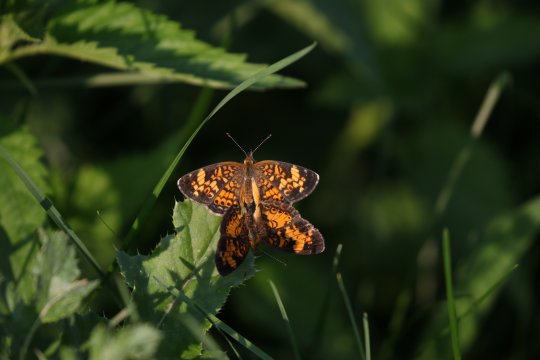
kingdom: Animalia
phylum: Arthropoda
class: Insecta
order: Lepidoptera
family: Nymphalidae
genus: Phyciodes
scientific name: Phyciodes tharos
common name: Pearl Crescent
